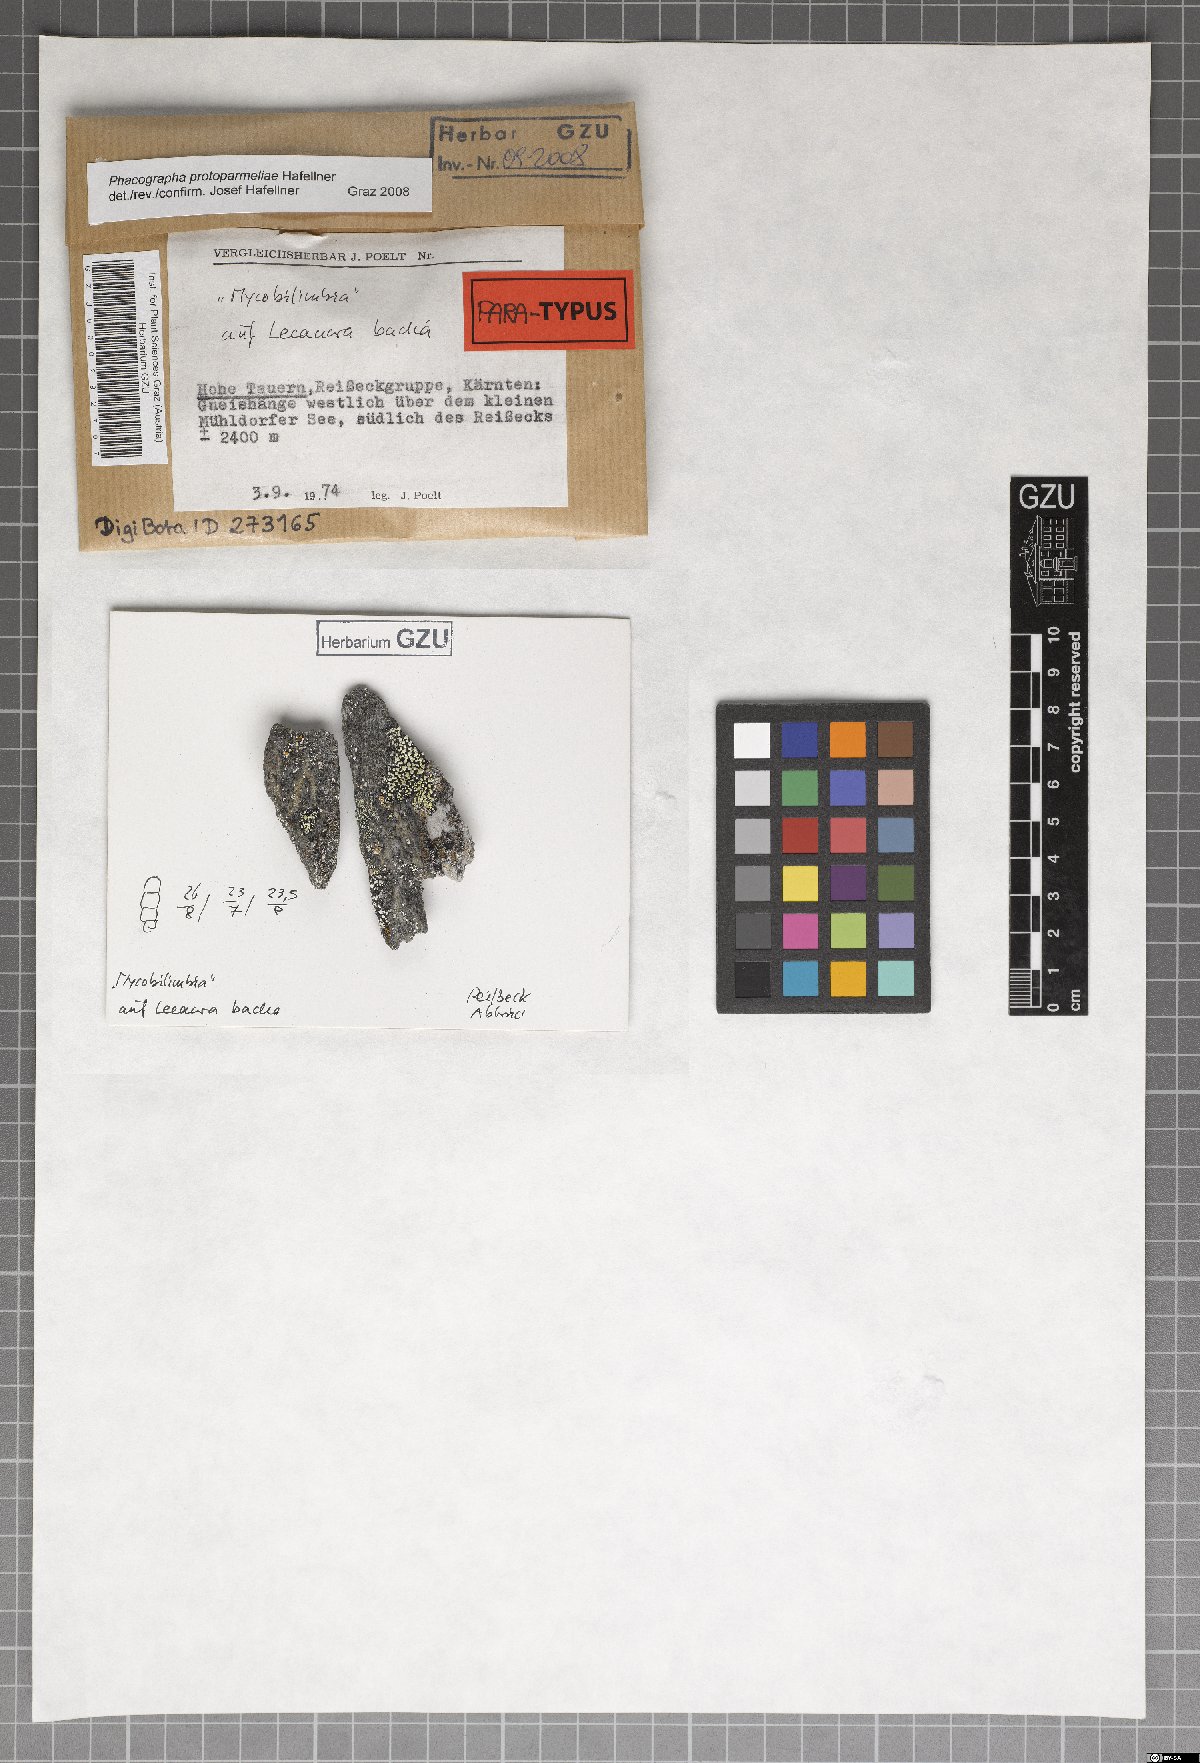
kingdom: Fungi
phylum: Ascomycota
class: Arthoniomycetes
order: Arthoniales
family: Roccellaceae
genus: Phacographa
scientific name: Phacographa protoparmeliae
